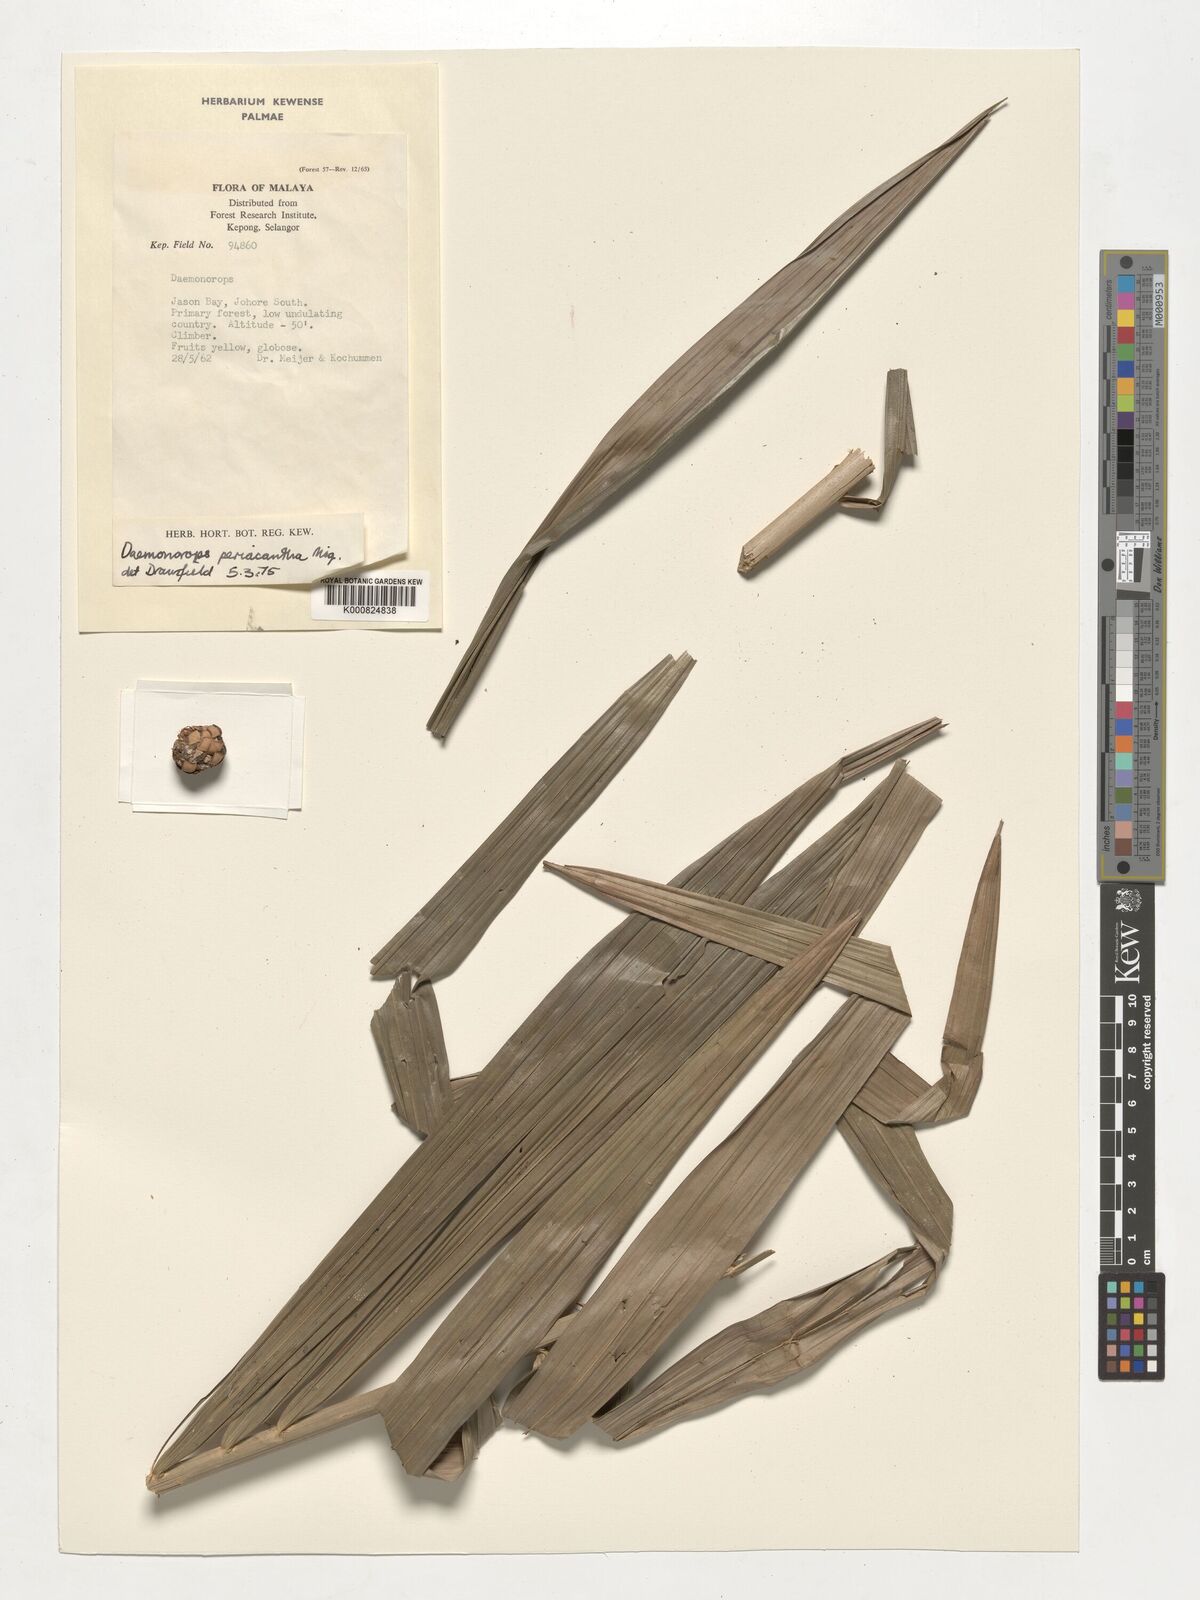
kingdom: Plantae
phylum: Tracheophyta
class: Liliopsida
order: Arecales
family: Arecaceae
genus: Calamus
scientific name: Calamus periacanthus
